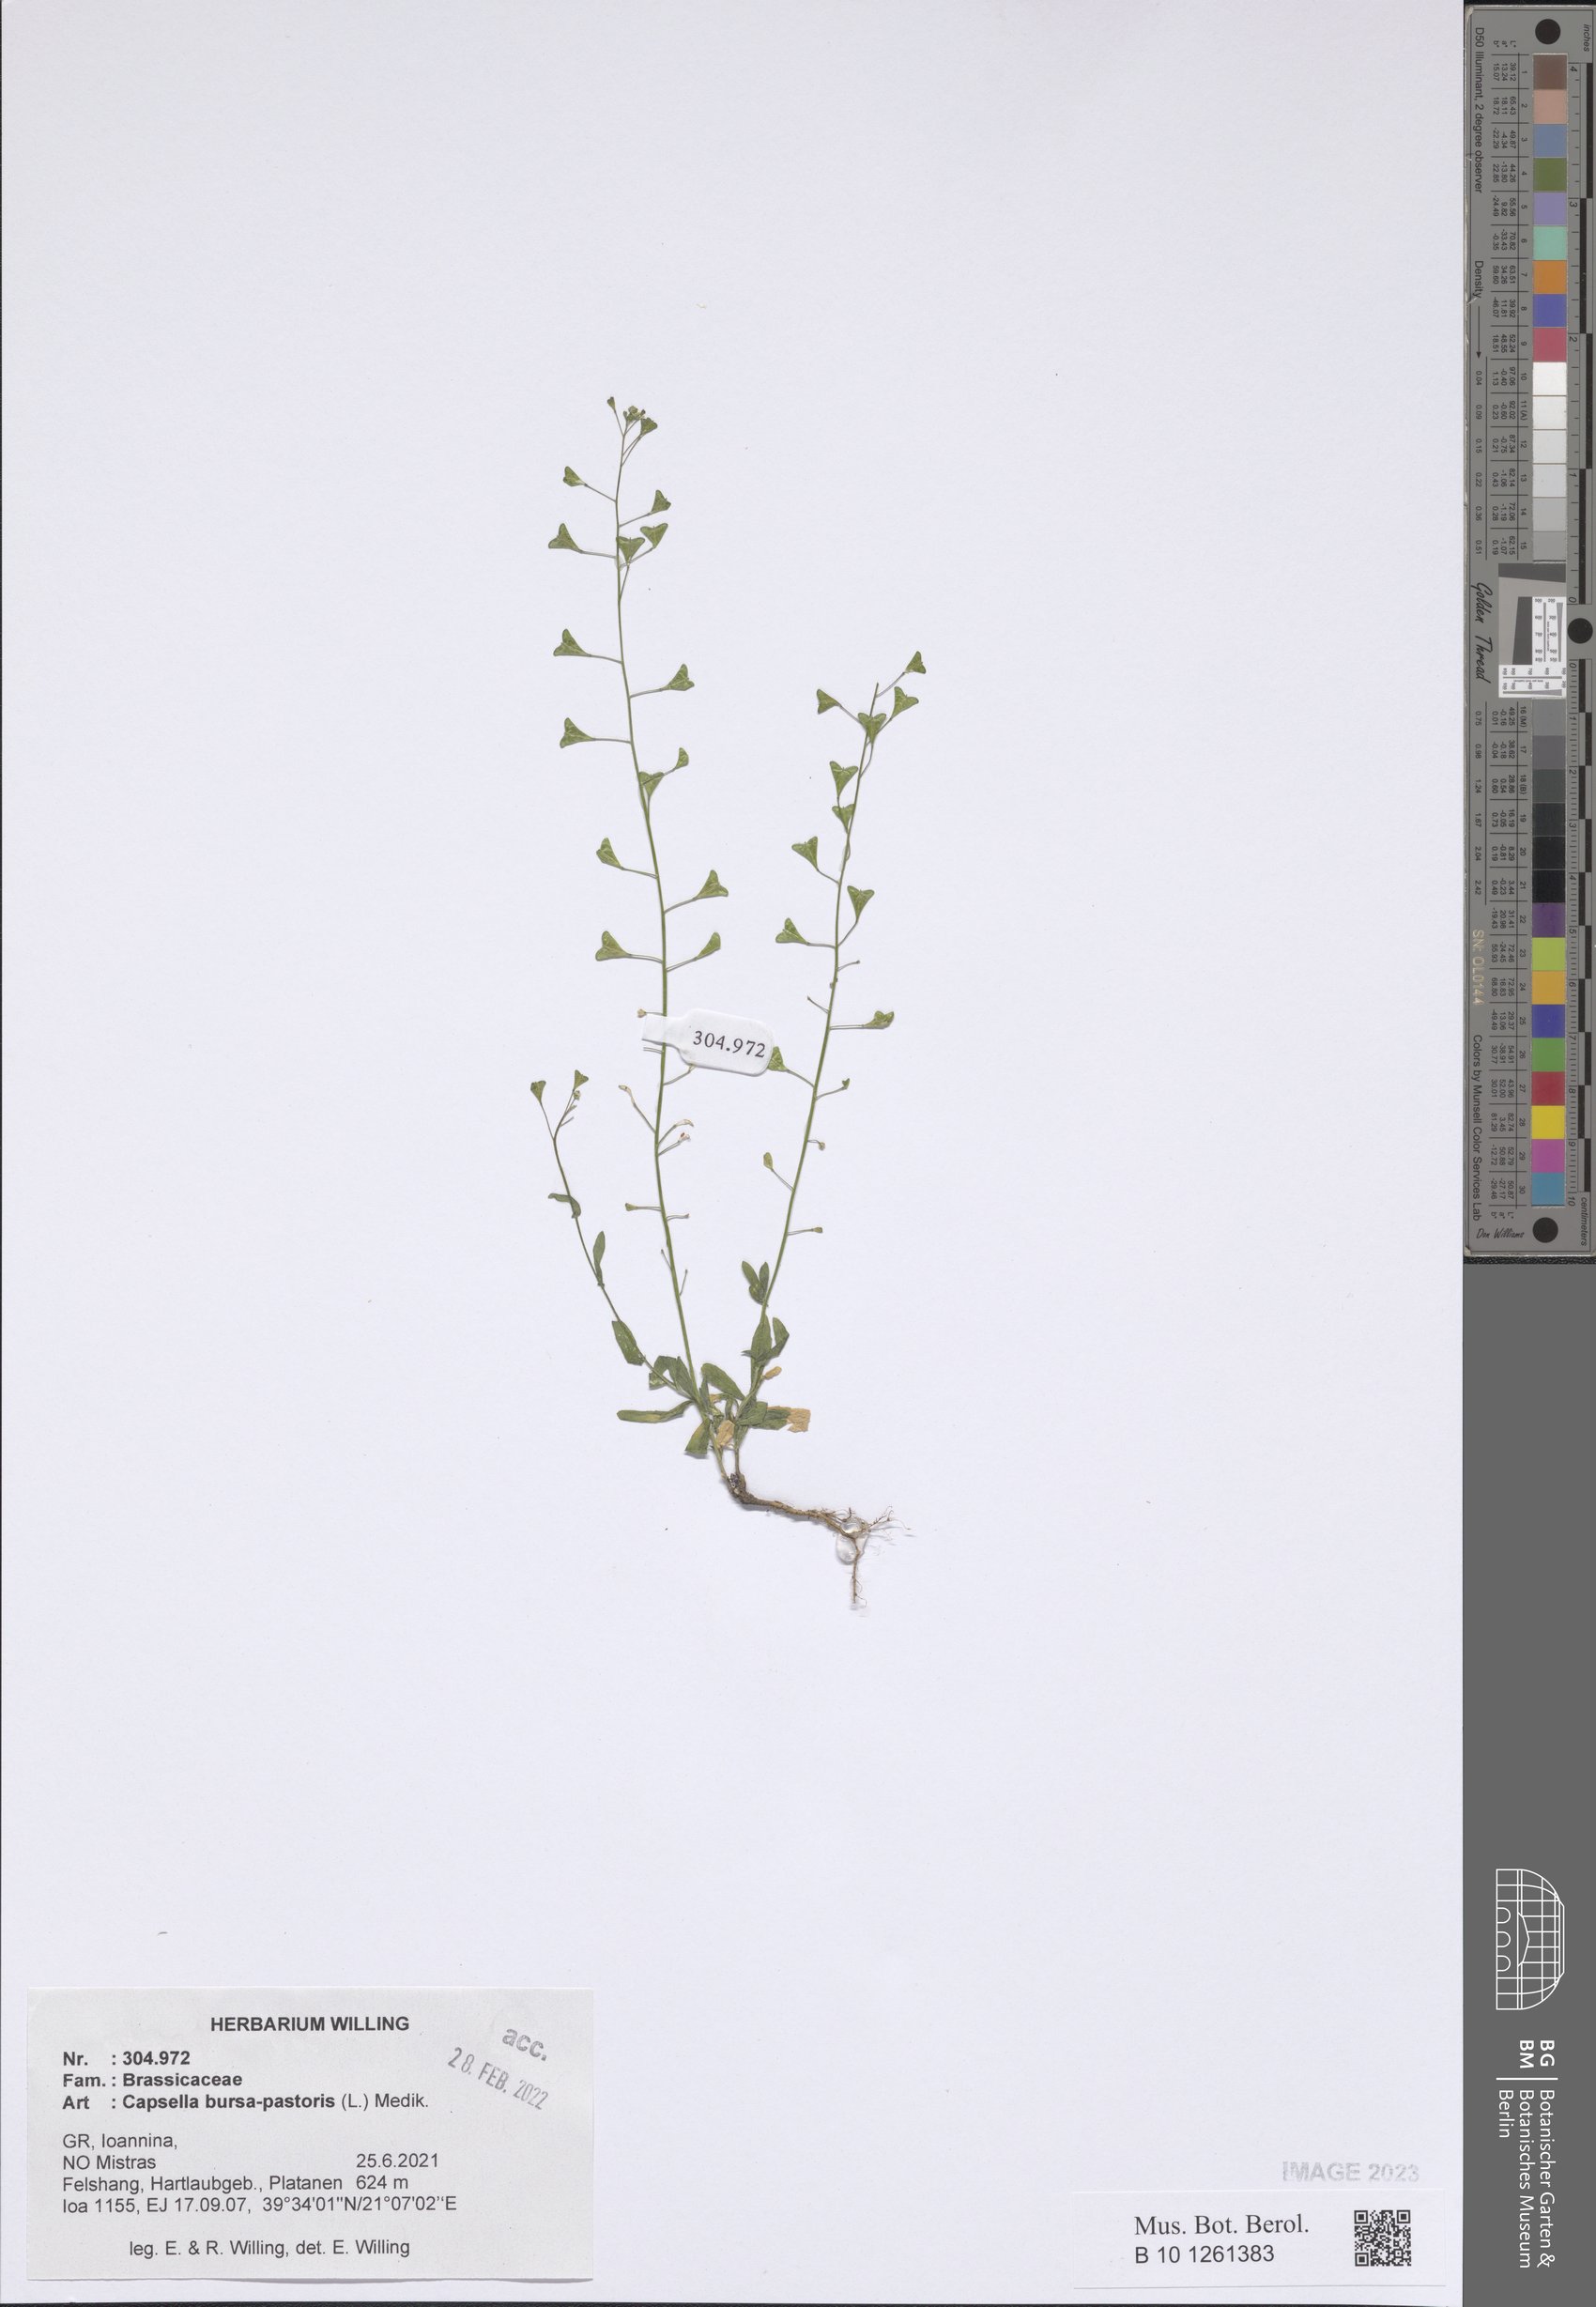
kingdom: Plantae
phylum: Tracheophyta
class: Magnoliopsida
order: Brassicales
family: Brassicaceae
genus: Capsella
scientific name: Capsella bursa-pastoris
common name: Shepherd's purse
